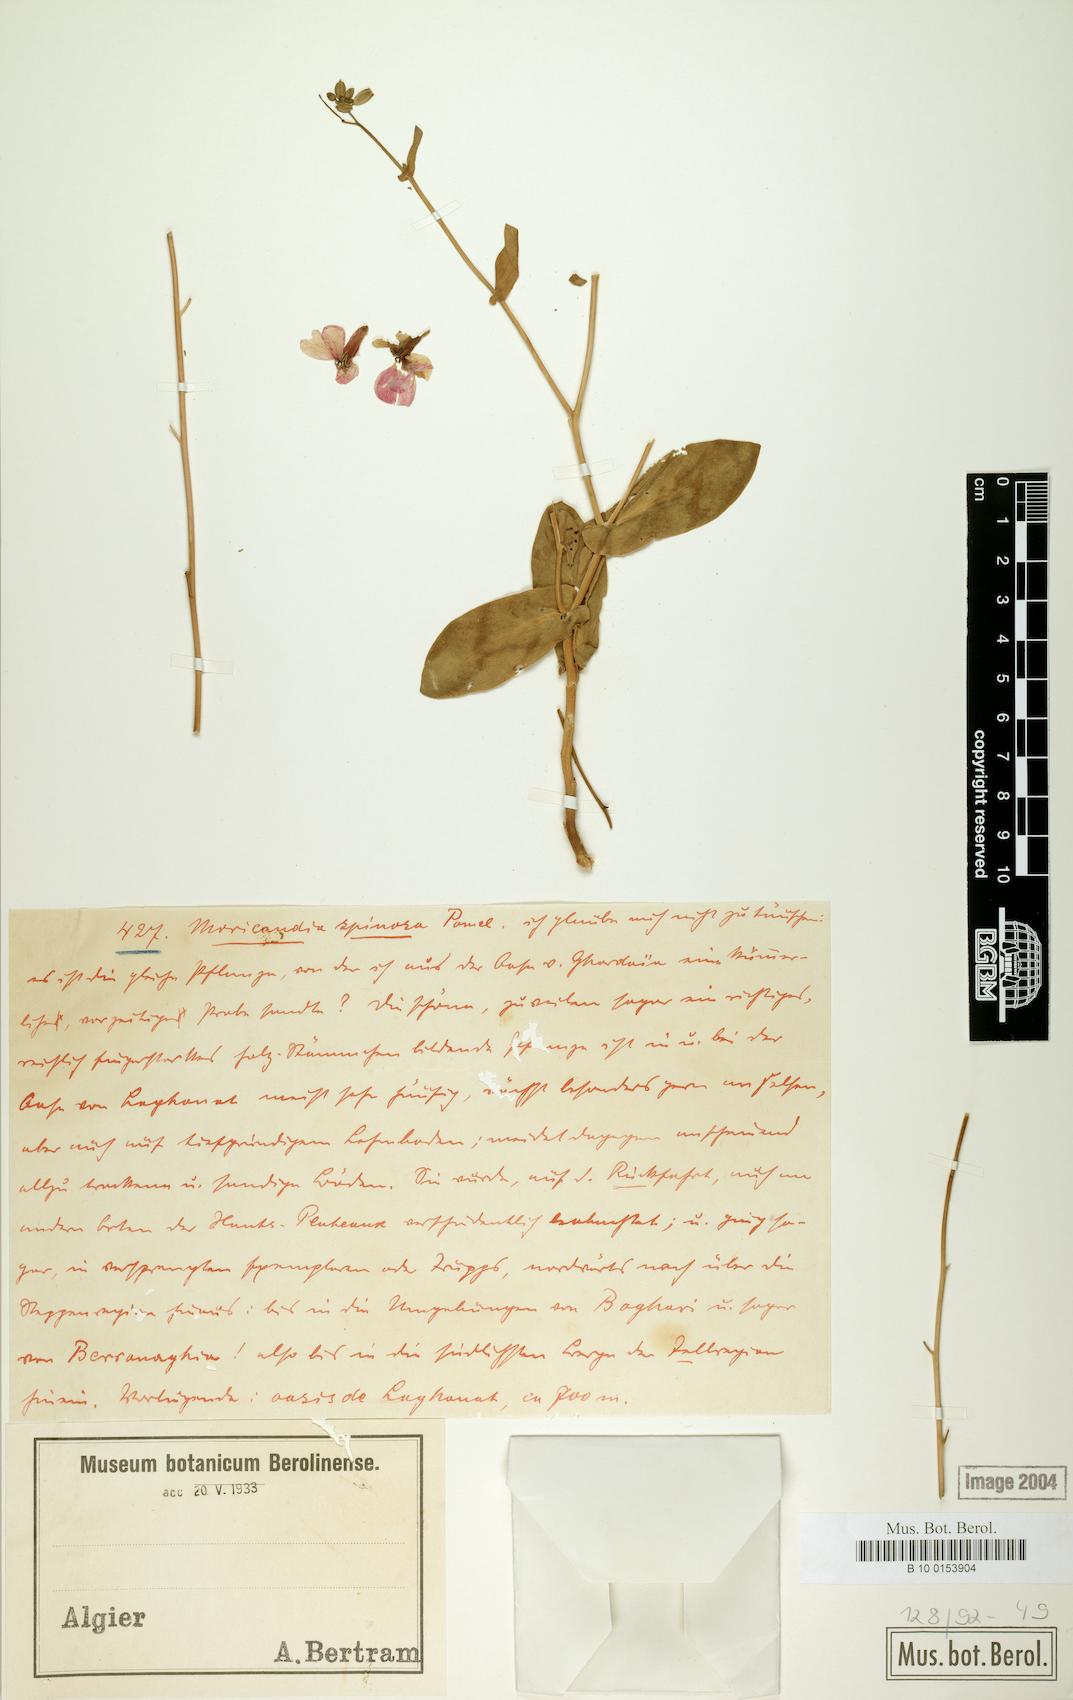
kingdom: Plantae
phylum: Tracheophyta
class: Magnoliopsida
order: Brassicales
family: Brassicaceae
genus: Moricandia
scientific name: Moricandia spinosa
